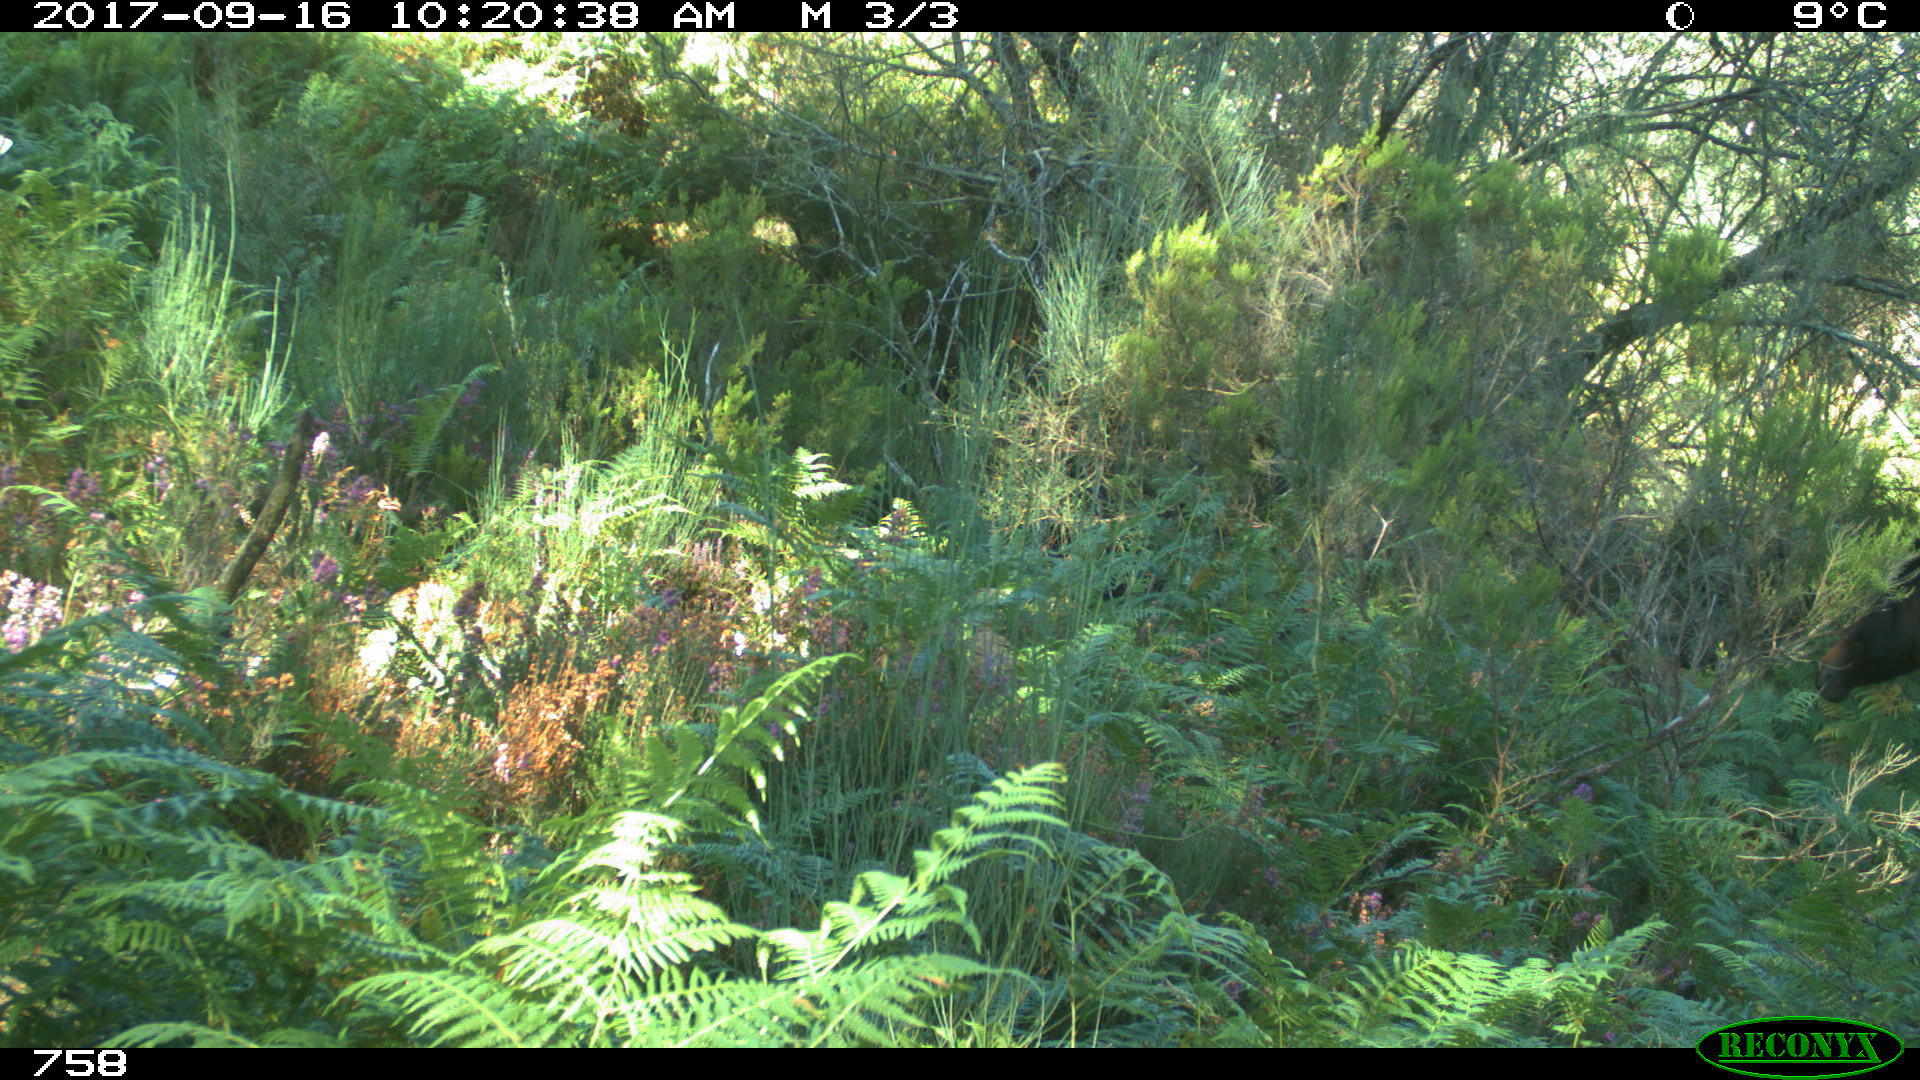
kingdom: Animalia
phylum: Chordata
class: Mammalia
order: Perissodactyla
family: Equidae
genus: Equus
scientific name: Equus caballus
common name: Horse
